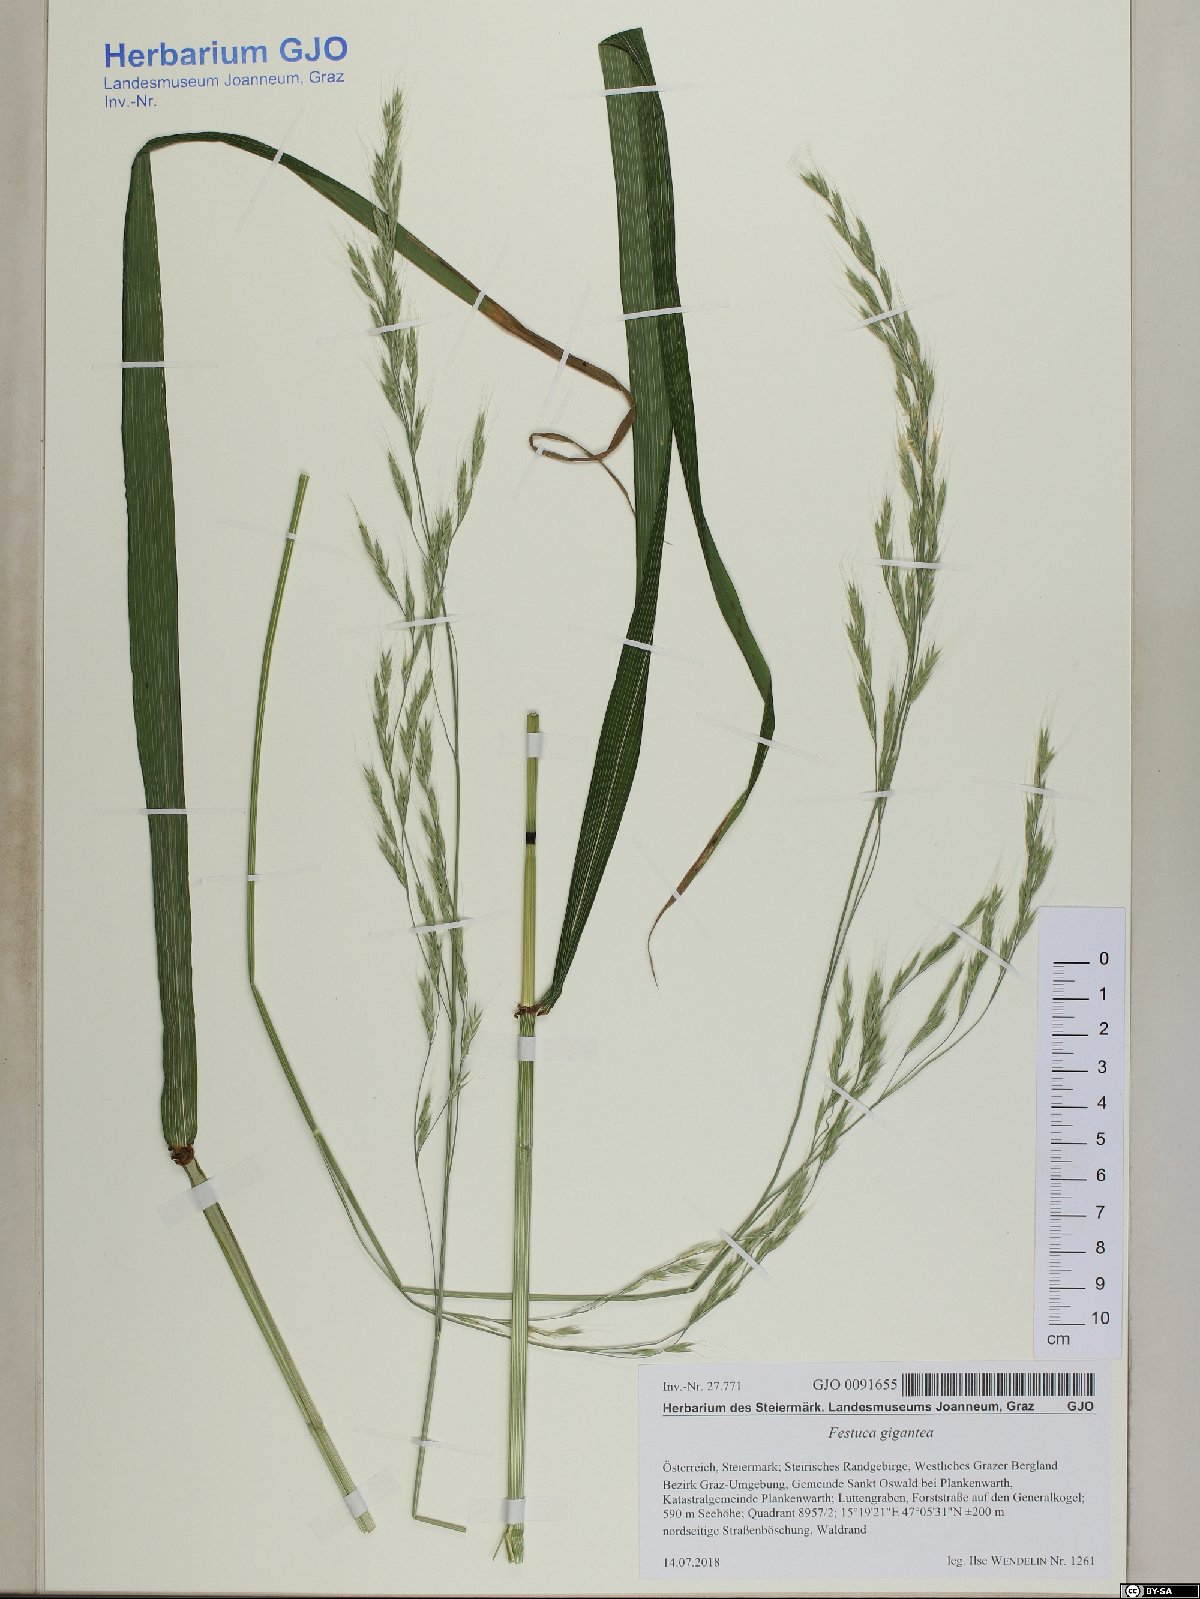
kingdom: Plantae
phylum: Tracheophyta
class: Liliopsida
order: Poales
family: Poaceae
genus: Lolium
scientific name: Lolium giganteum
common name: Giant fescue
